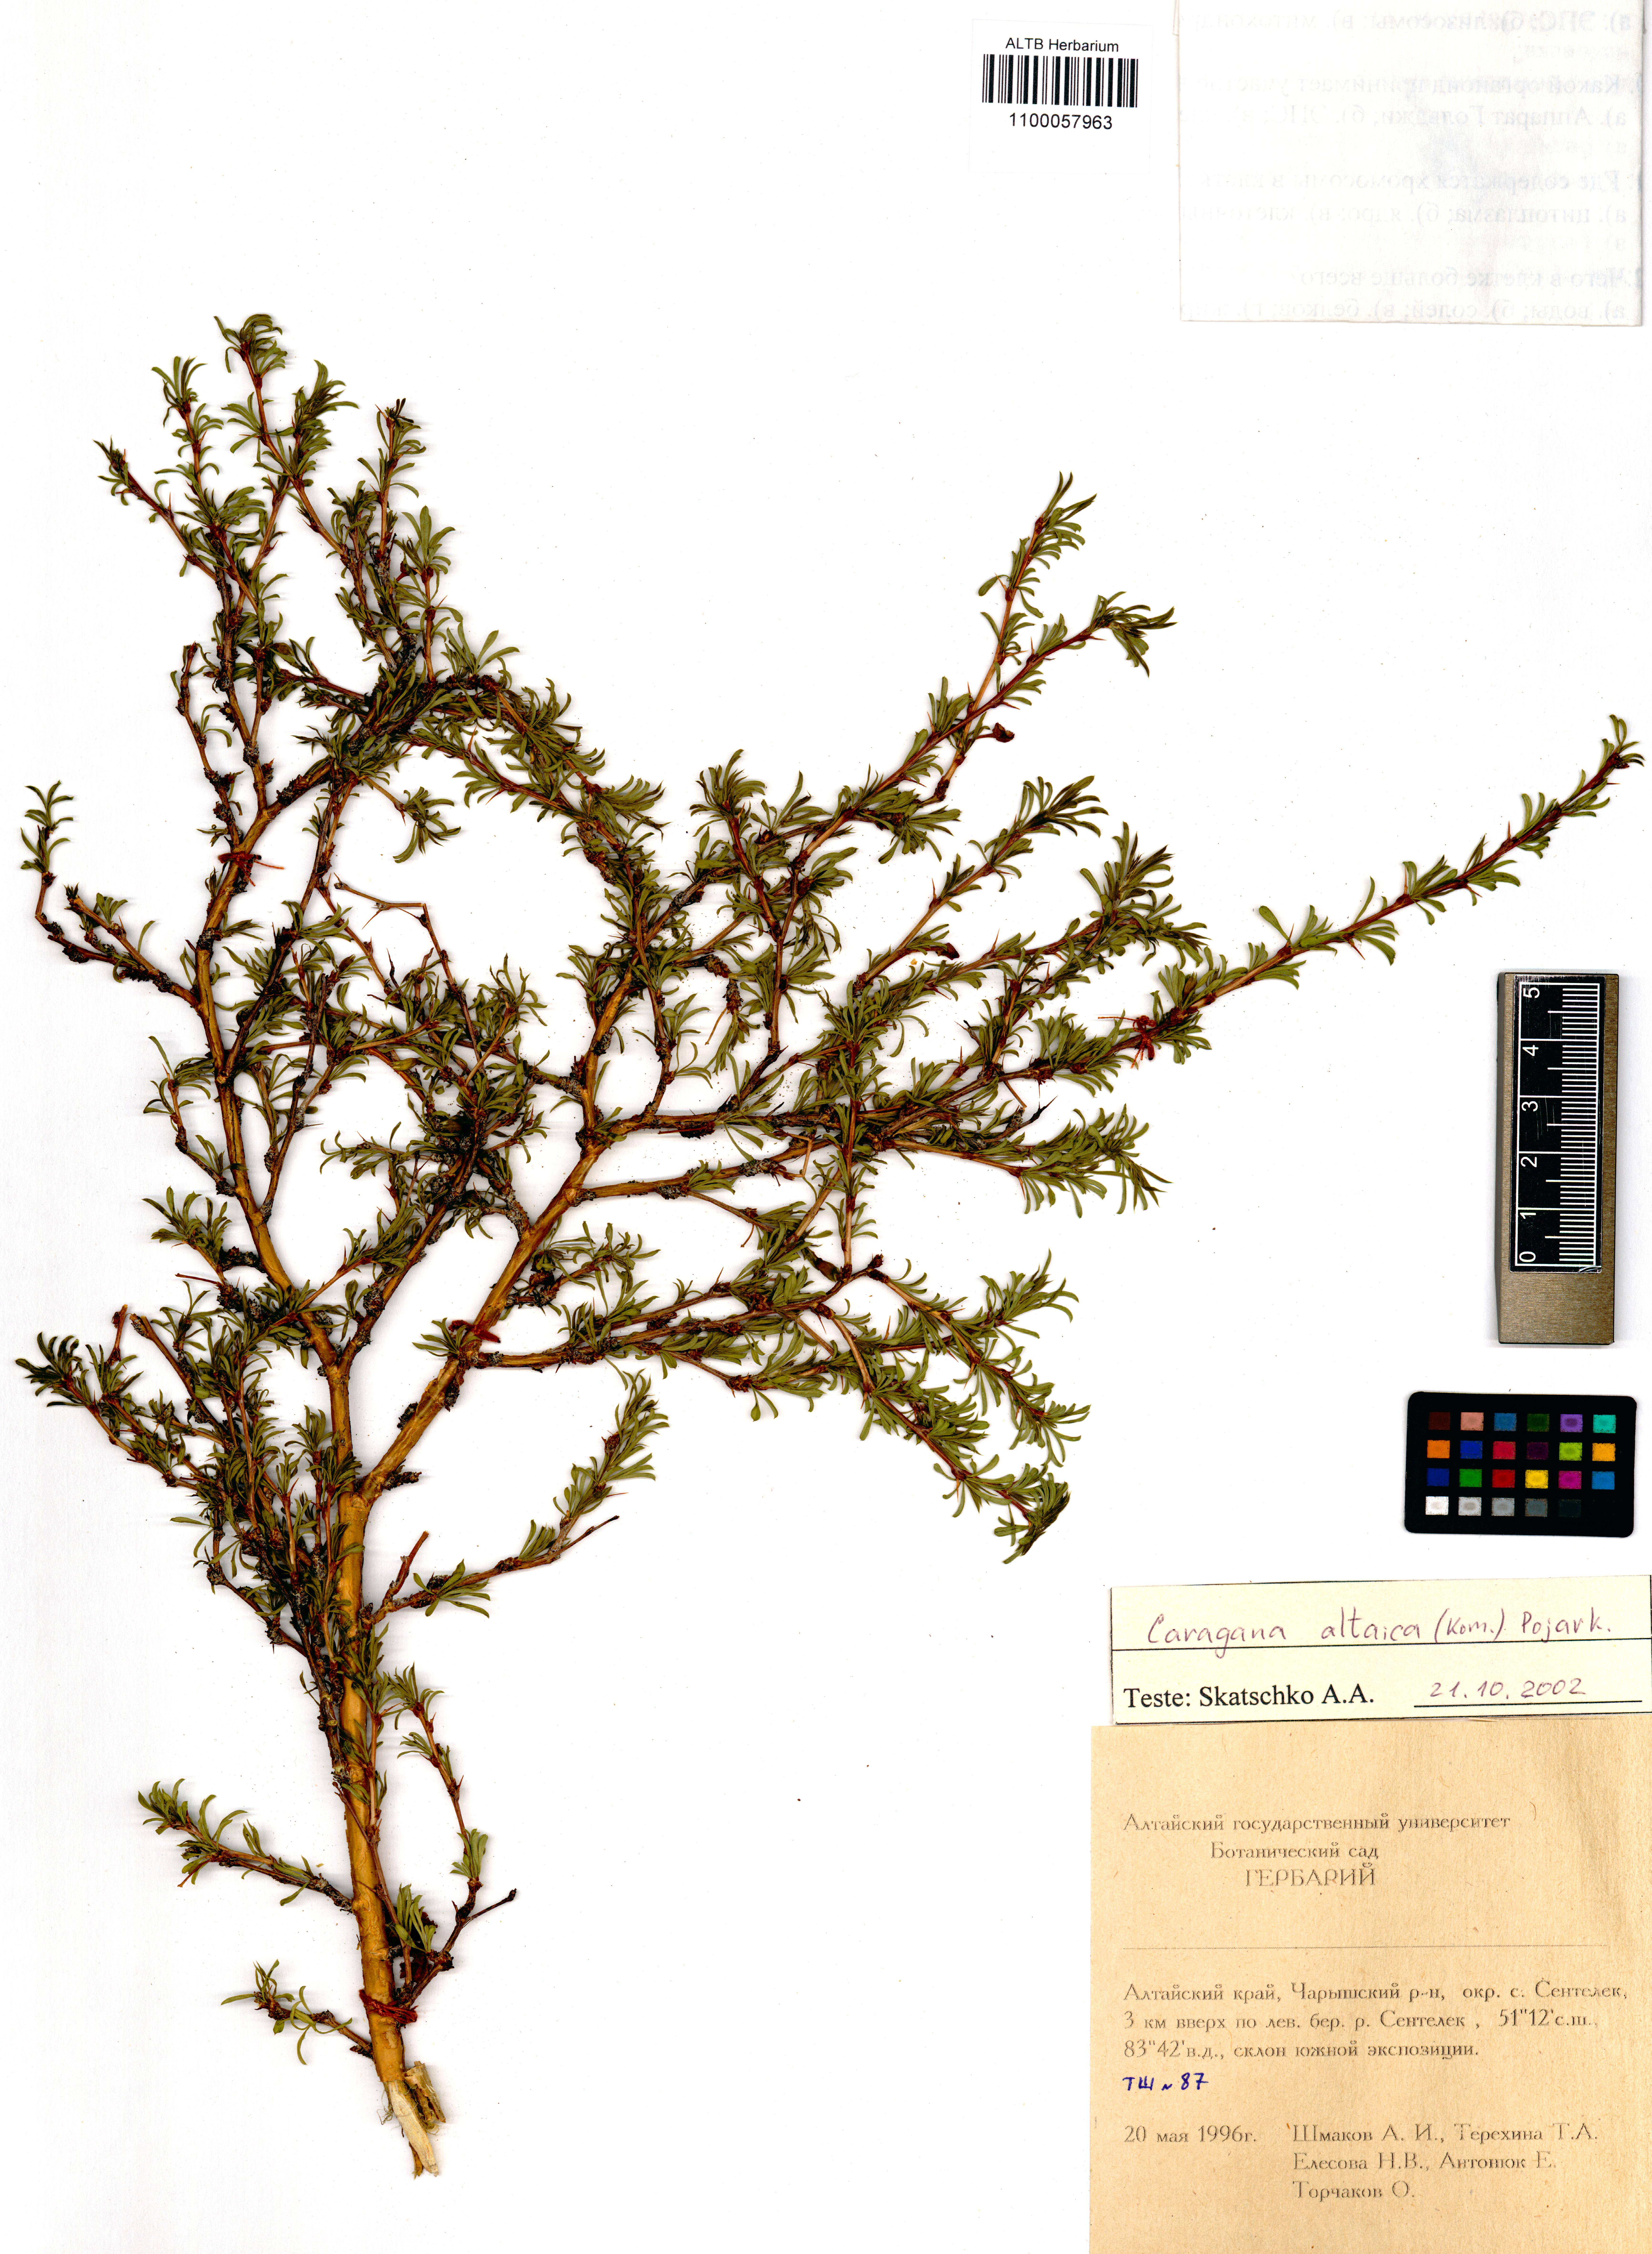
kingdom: Plantae
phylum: Tracheophyta
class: Magnoliopsida
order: Fabales
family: Fabaceae
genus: Caragana
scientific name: Caragana pygmaea
